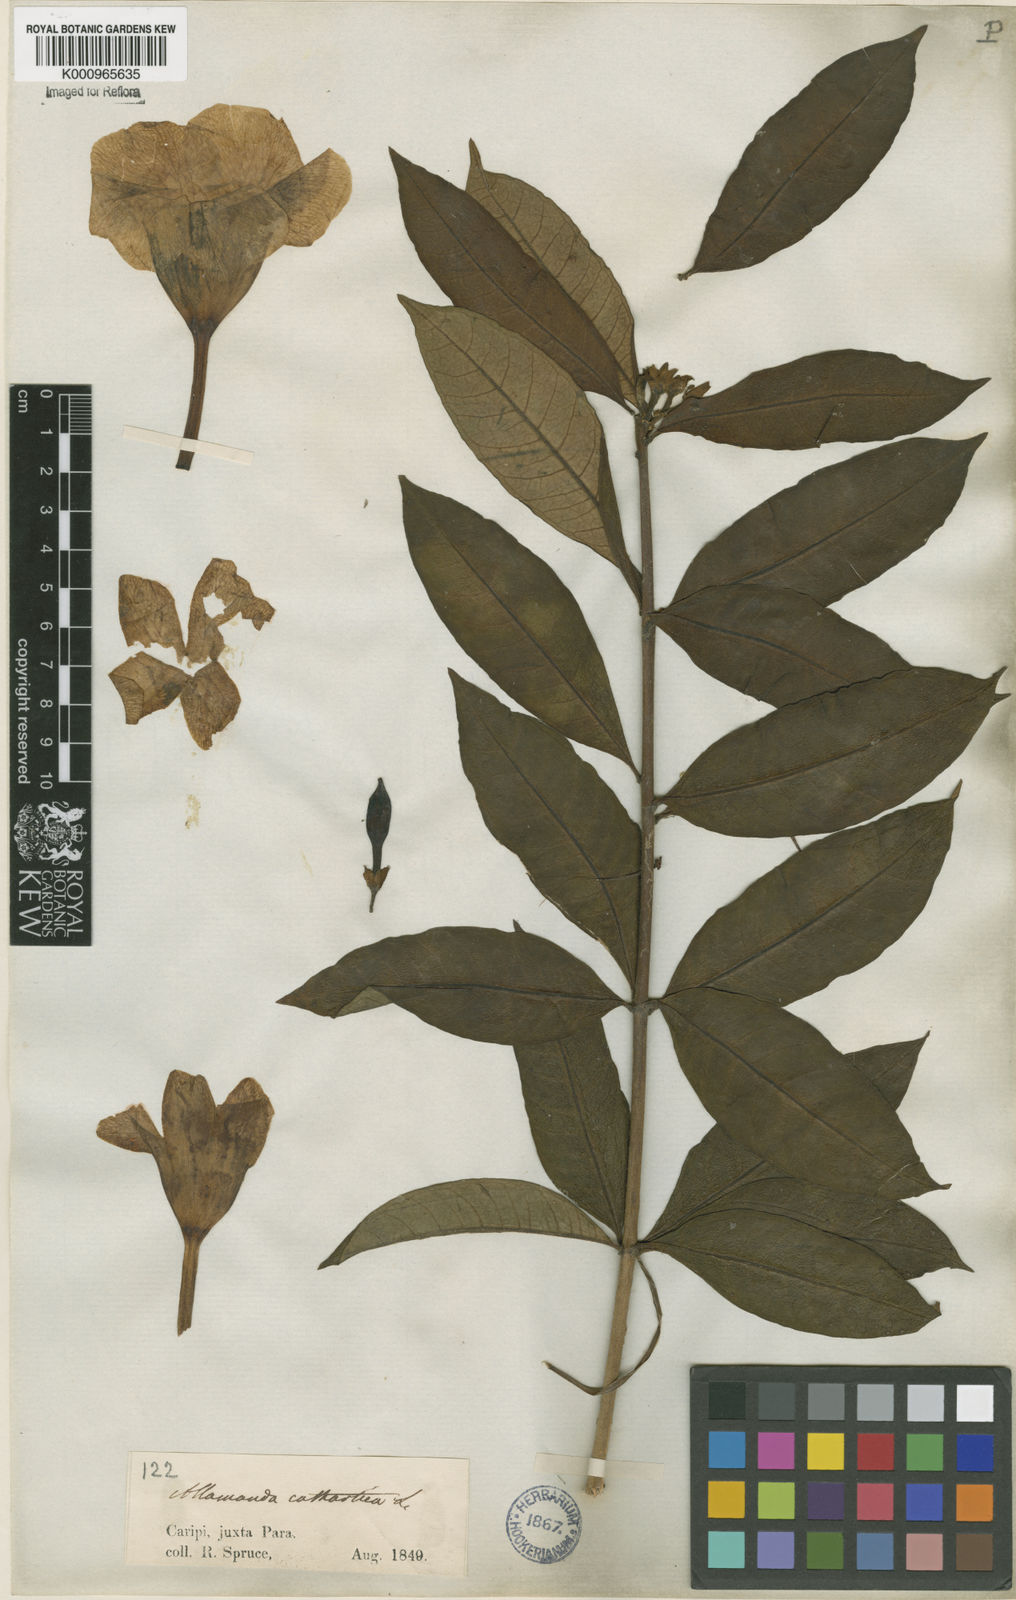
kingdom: Plantae
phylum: Tracheophyta
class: Magnoliopsida
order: Gentianales
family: Apocynaceae
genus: Allamanda
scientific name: Allamanda cathartica
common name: Golden trumpet
